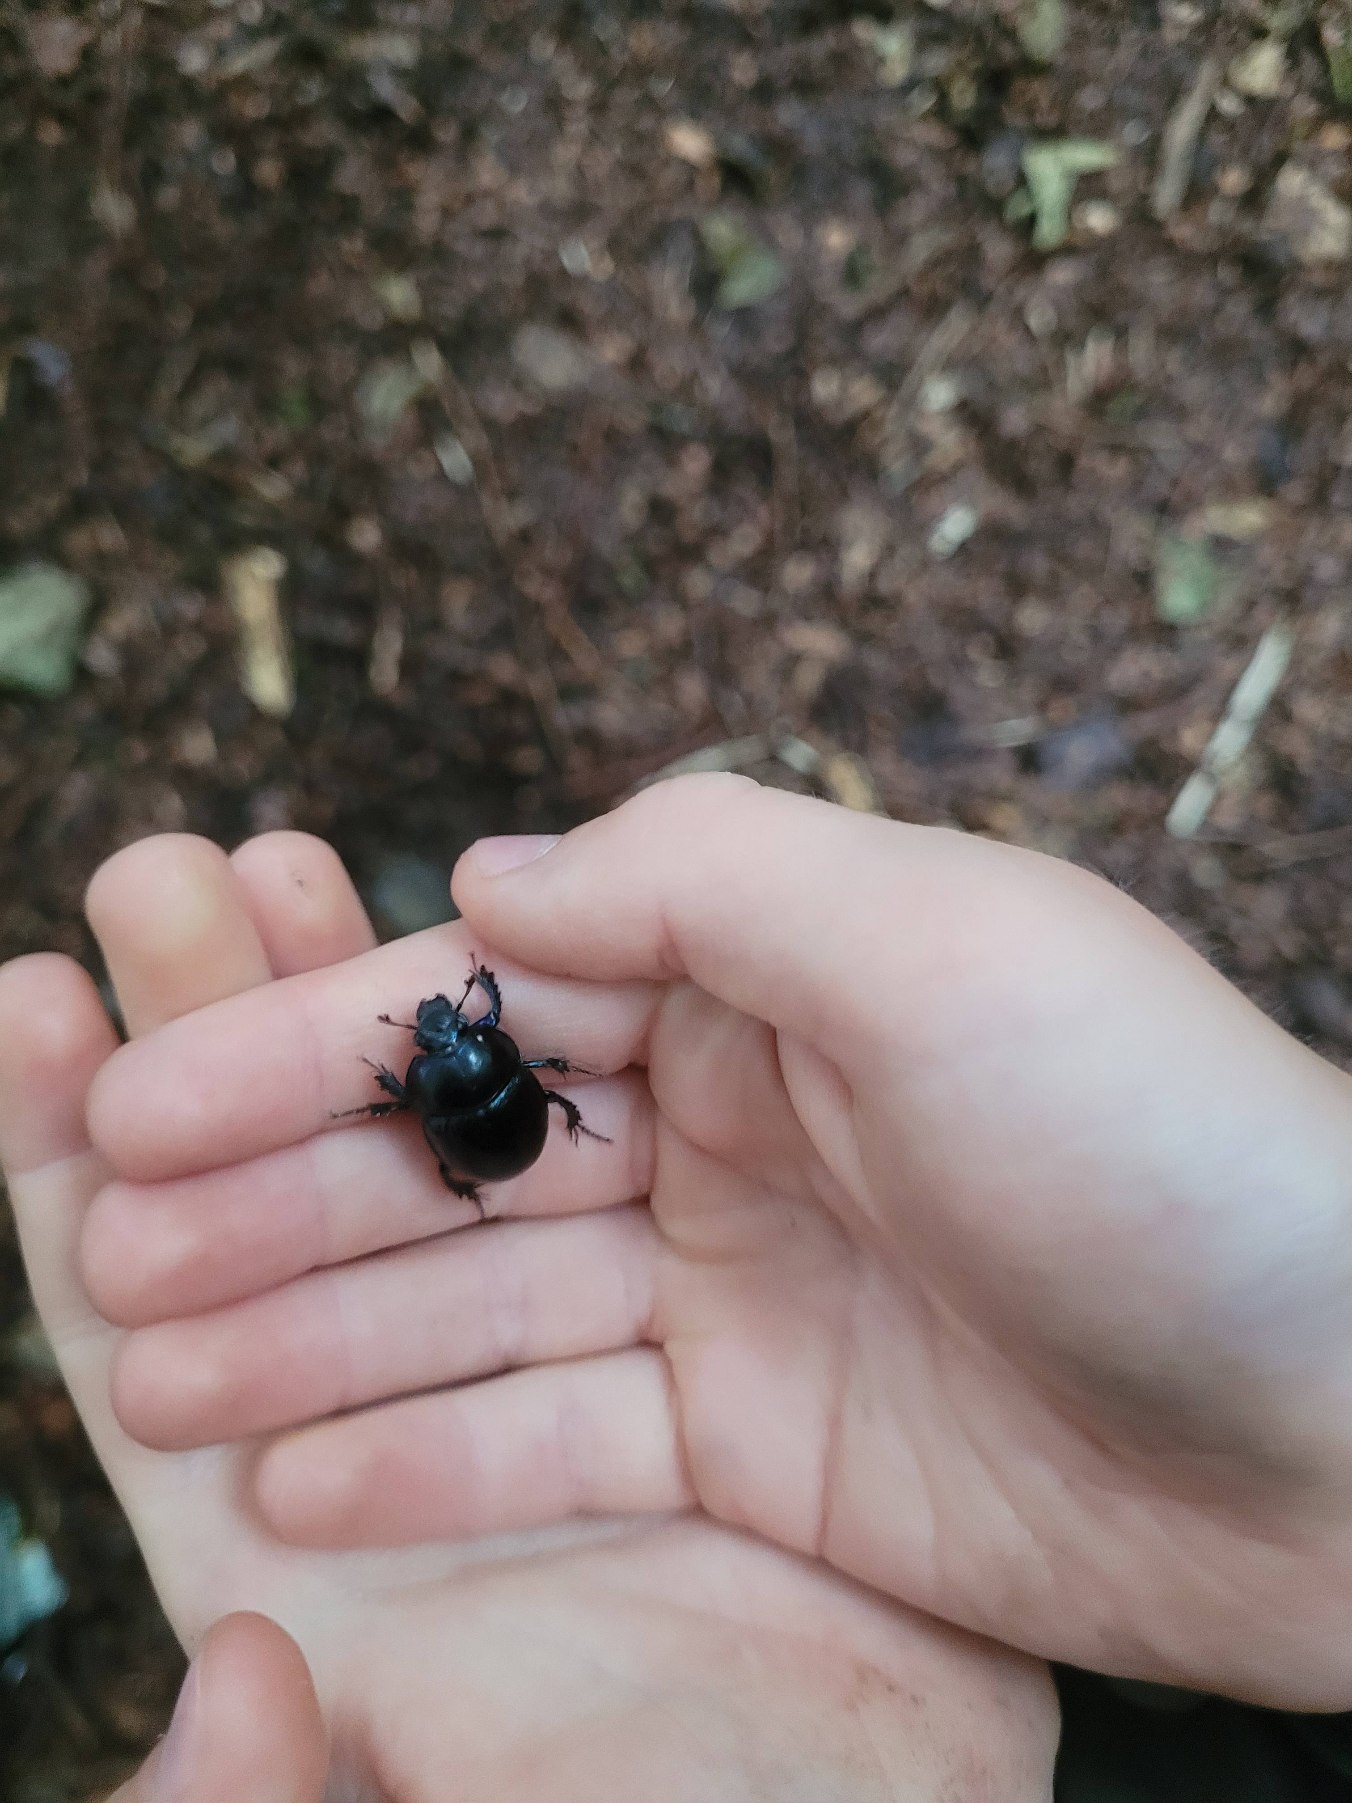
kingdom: Animalia
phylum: Arthropoda
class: Insecta
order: Coleoptera
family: Geotrupidae
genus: Anoplotrupes
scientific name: Anoplotrupes stercorosus
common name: Skovskarnbasse
